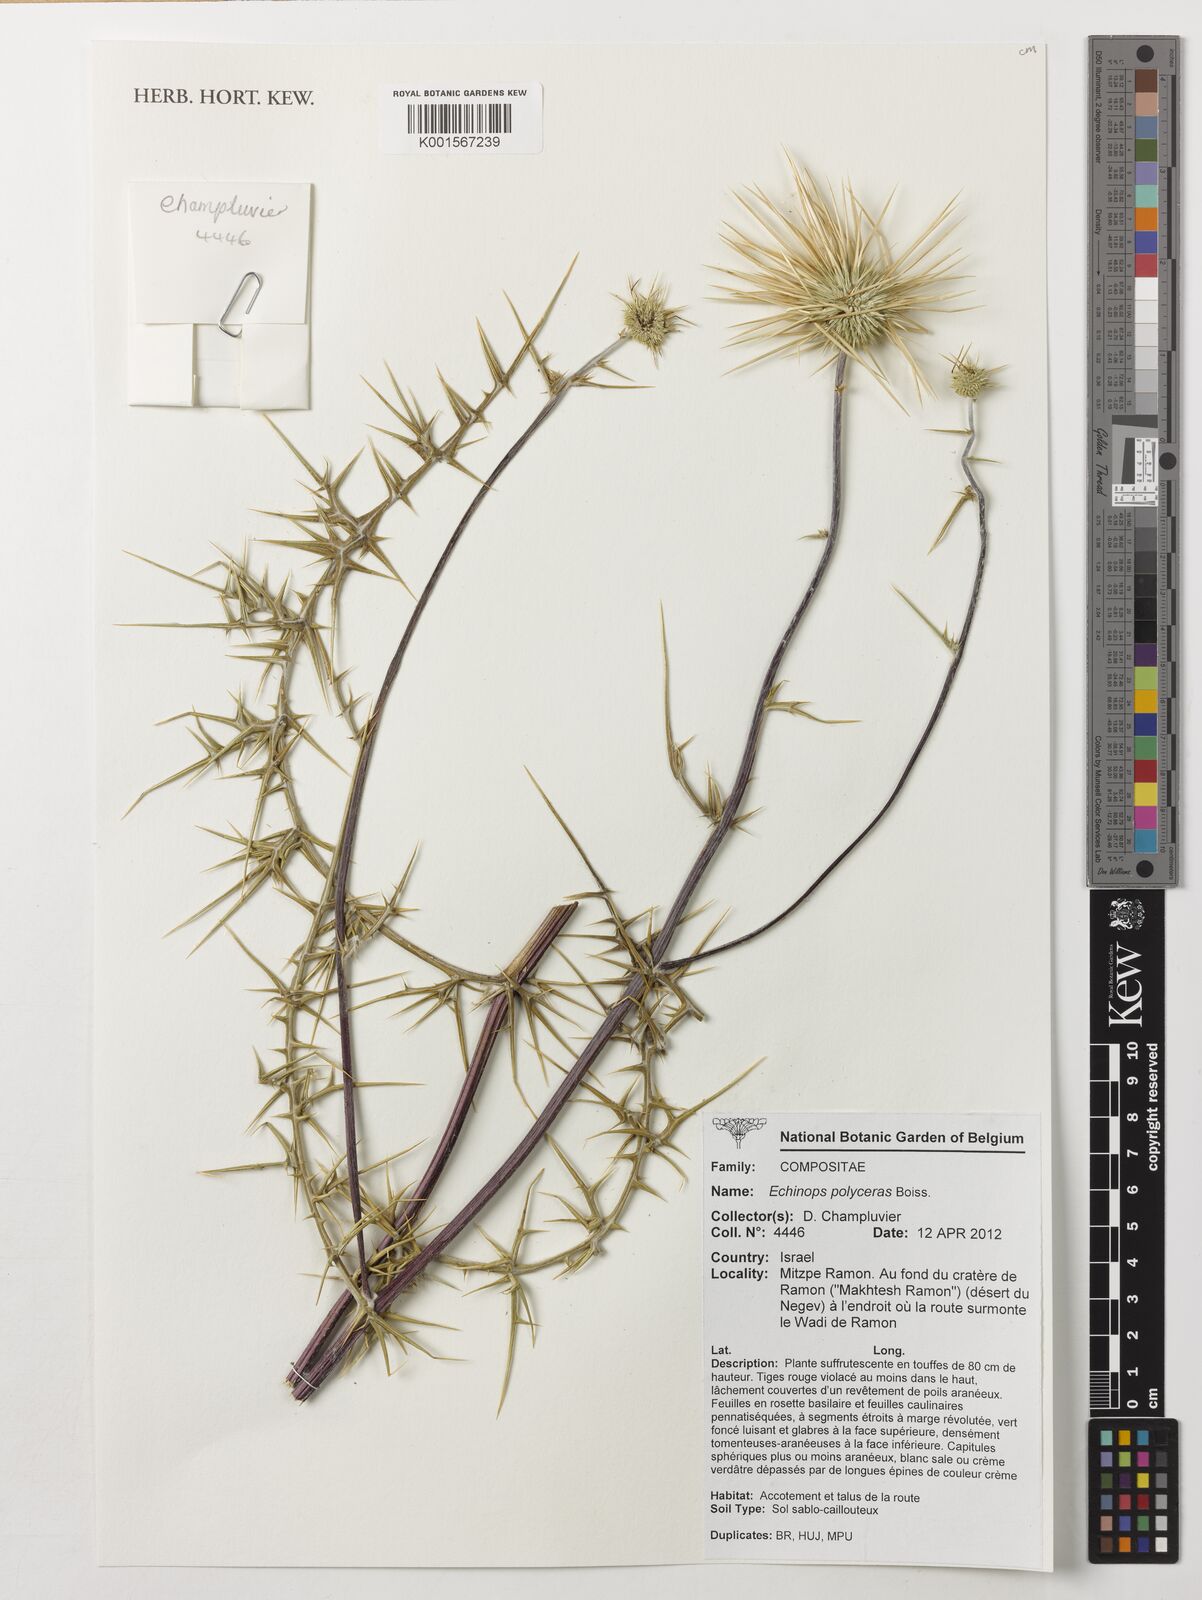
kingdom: Plantae
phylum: Tracheophyta
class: Magnoliopsida
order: Asterales
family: Asteraceae
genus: Echinops
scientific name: Echinops polyceras
